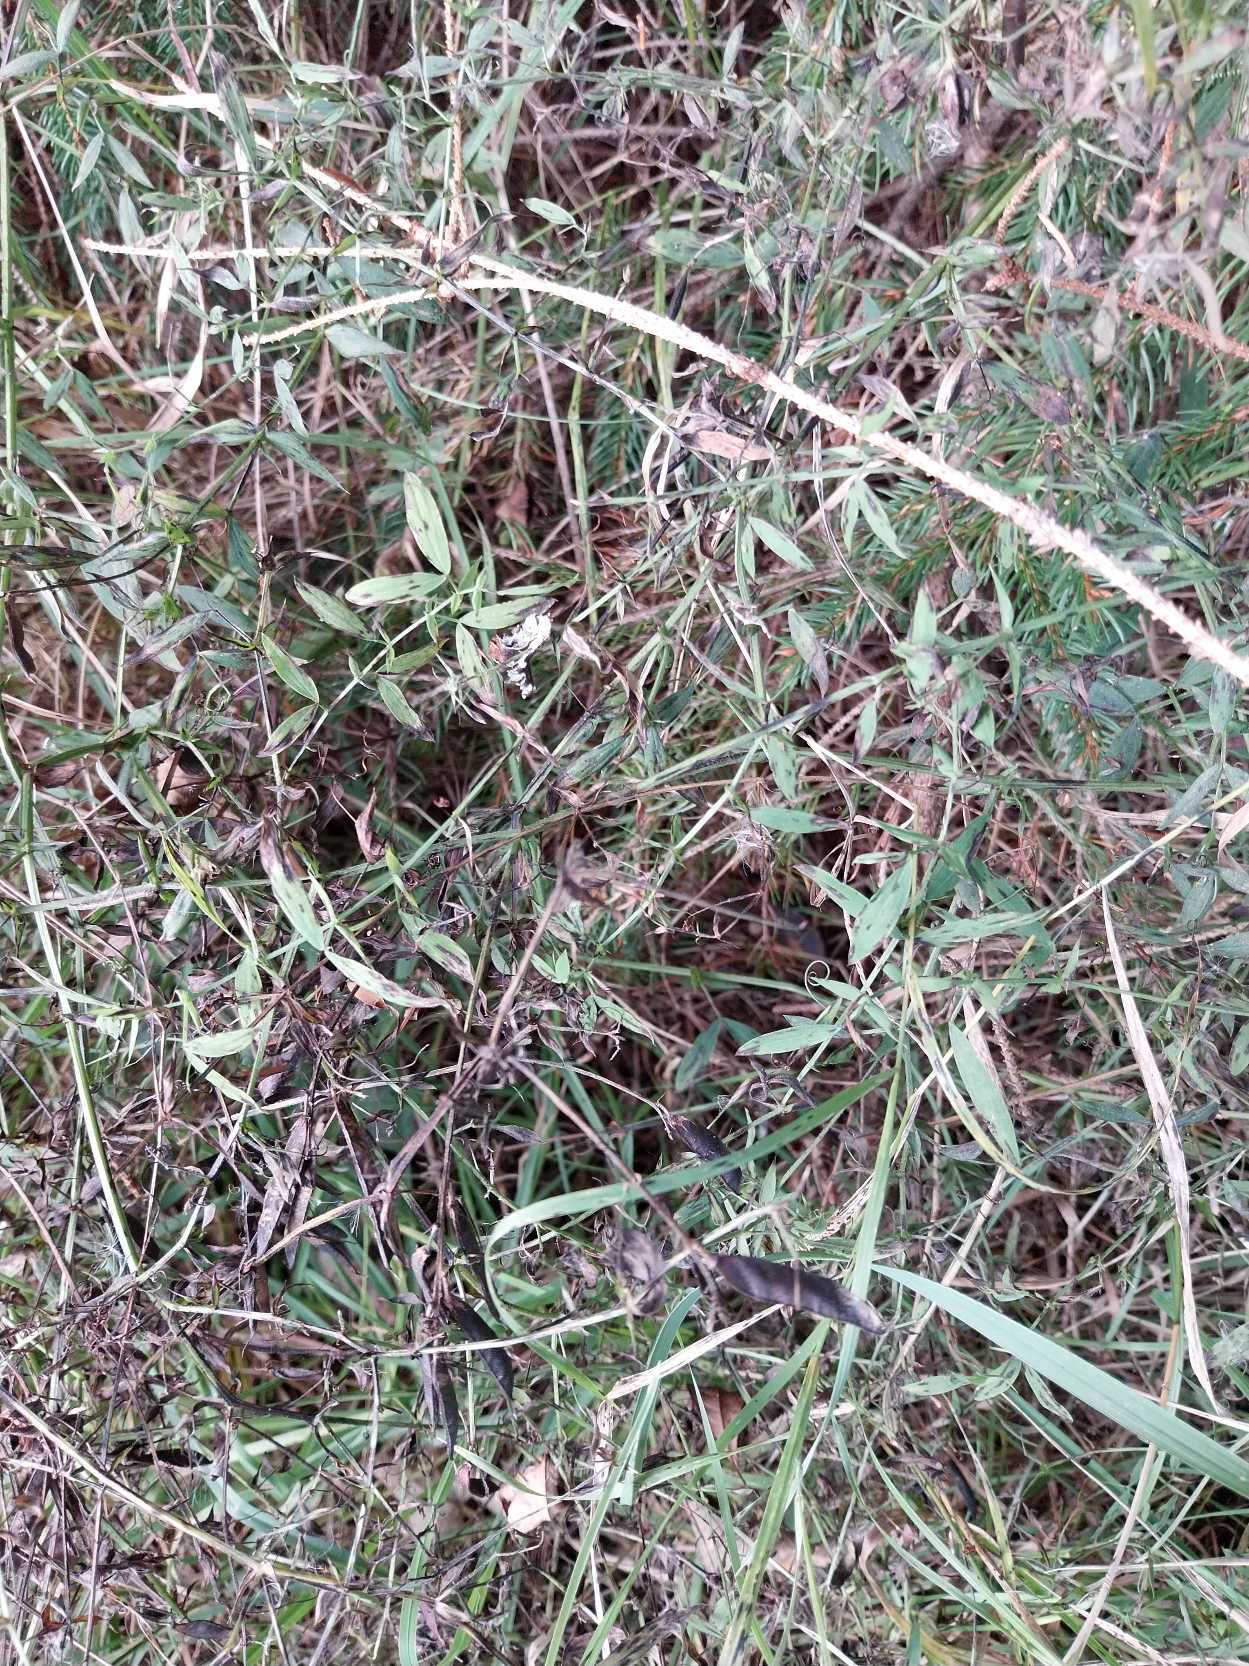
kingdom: Plantae
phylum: Tracheophyta
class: Magnoliopsida
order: Fabales
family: Fabaceae
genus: Lathyrus
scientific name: Lathyrus pratensis
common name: Gul fladbælg
